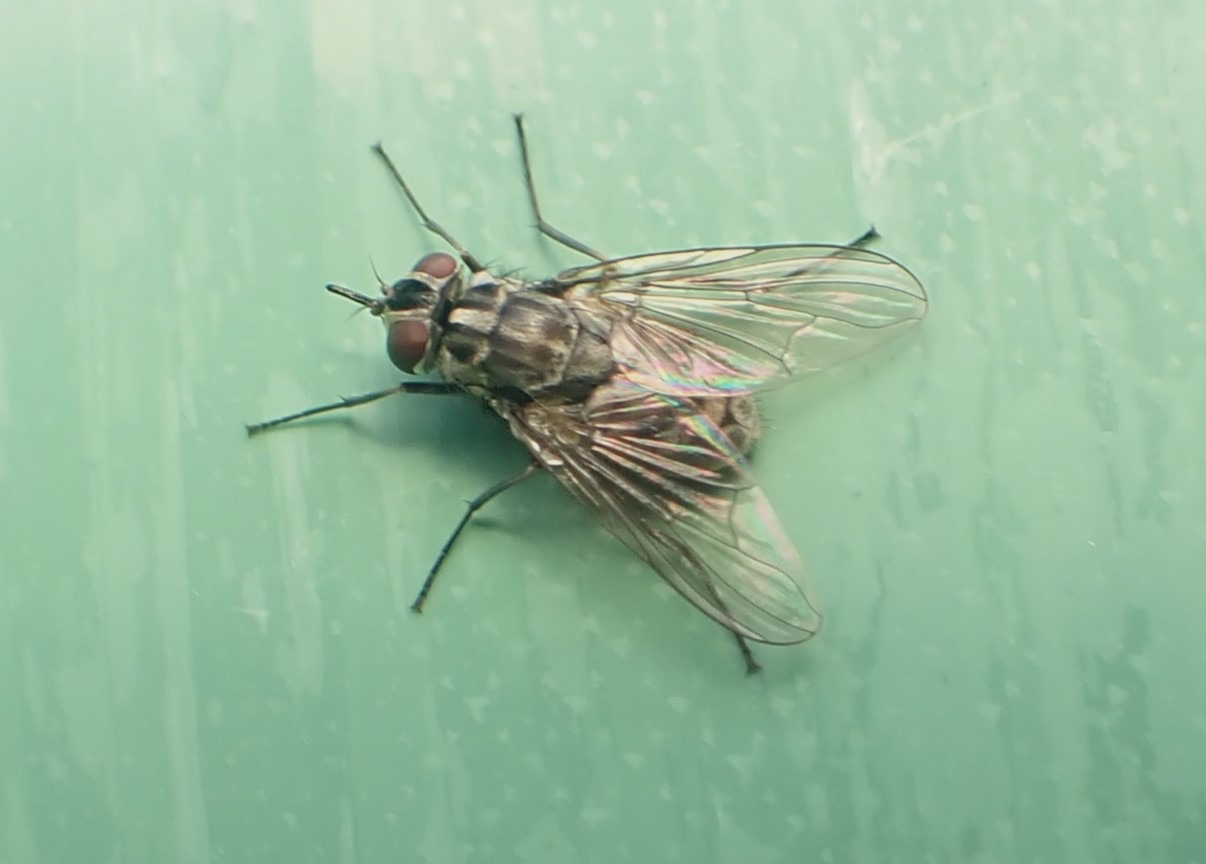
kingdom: Animalia
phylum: Arthropoda
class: Insecta
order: Diptera
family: Muscidae
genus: Stomoxys
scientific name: Stomoxys calcitrans
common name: Stikflue
